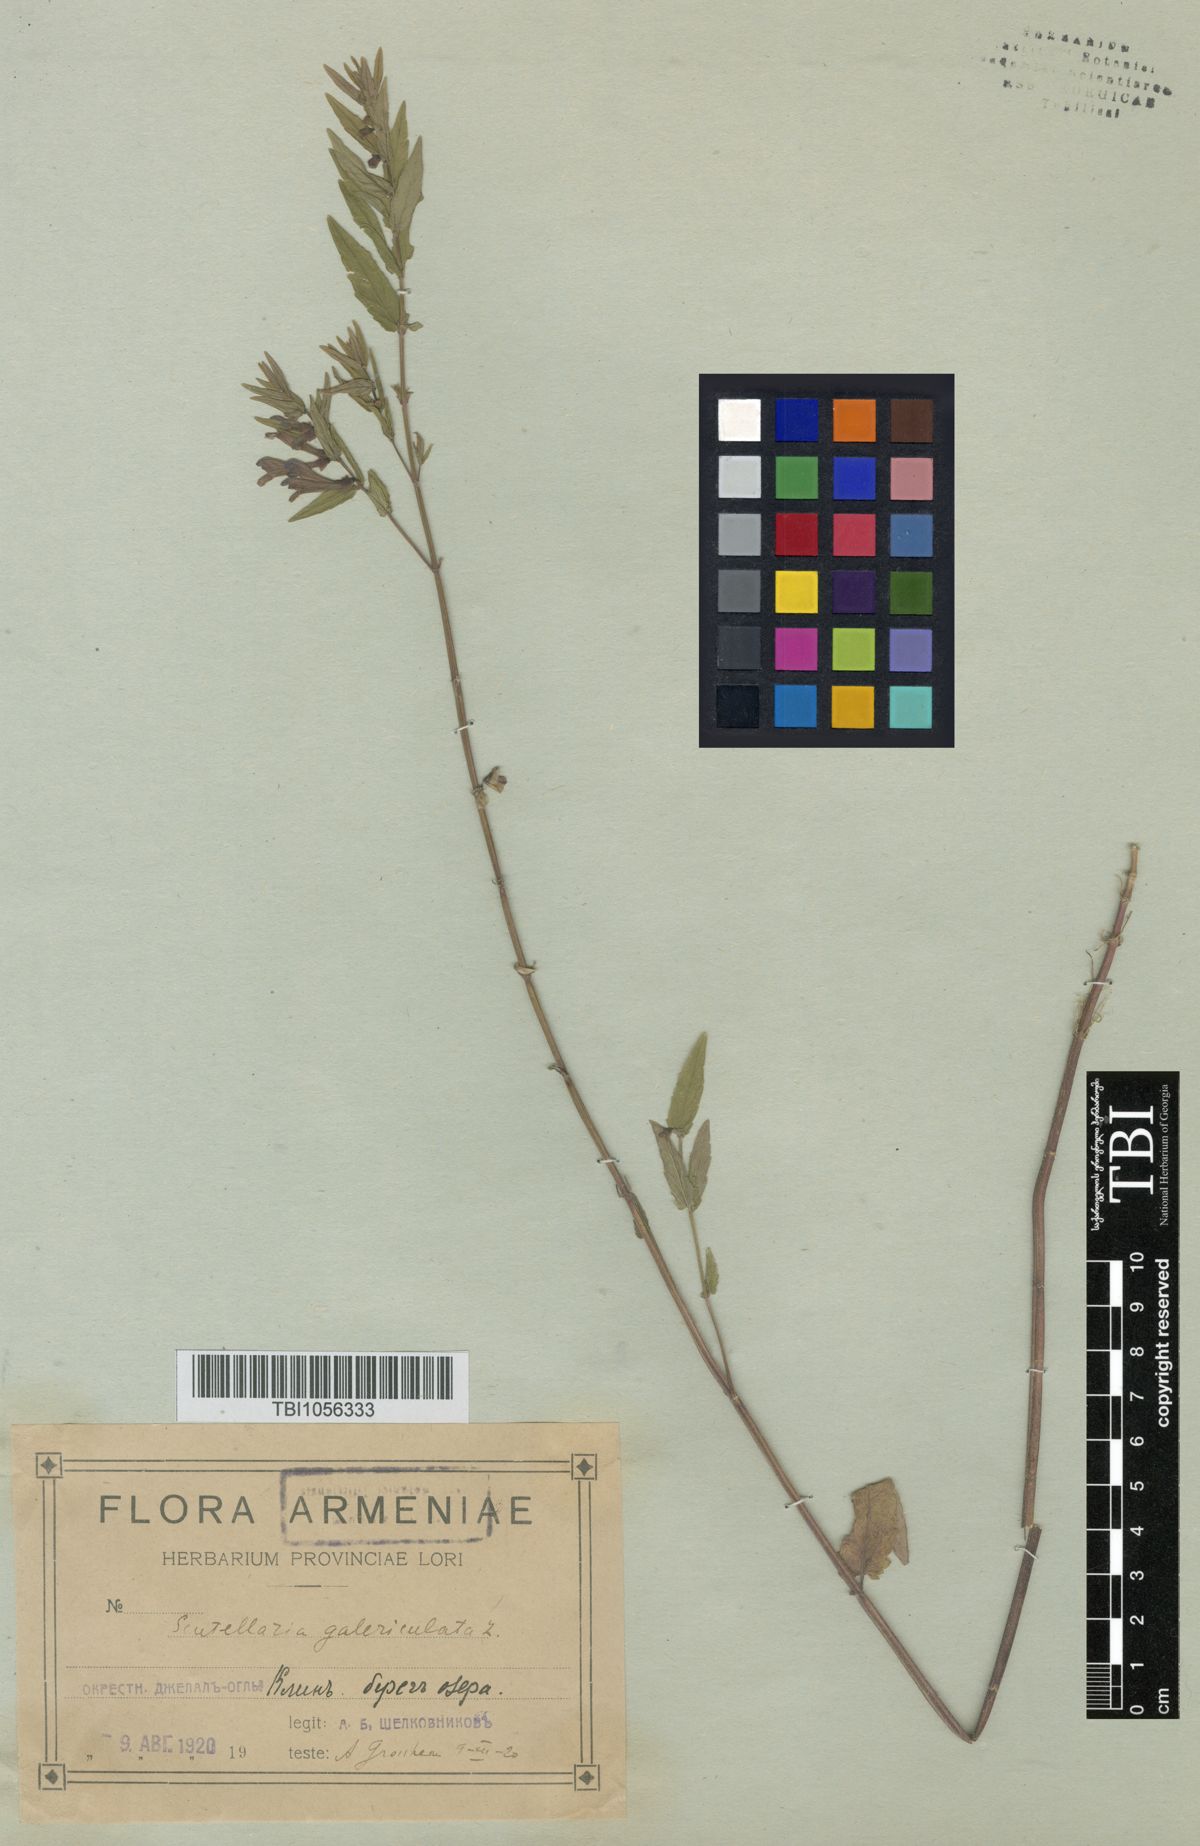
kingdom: Plantae
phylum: Tracheophyta
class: Magnoliopsida
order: Lamiales
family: Lamiaceae
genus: Scutellaria
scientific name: Scutellaria galericulata
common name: Skullcap
